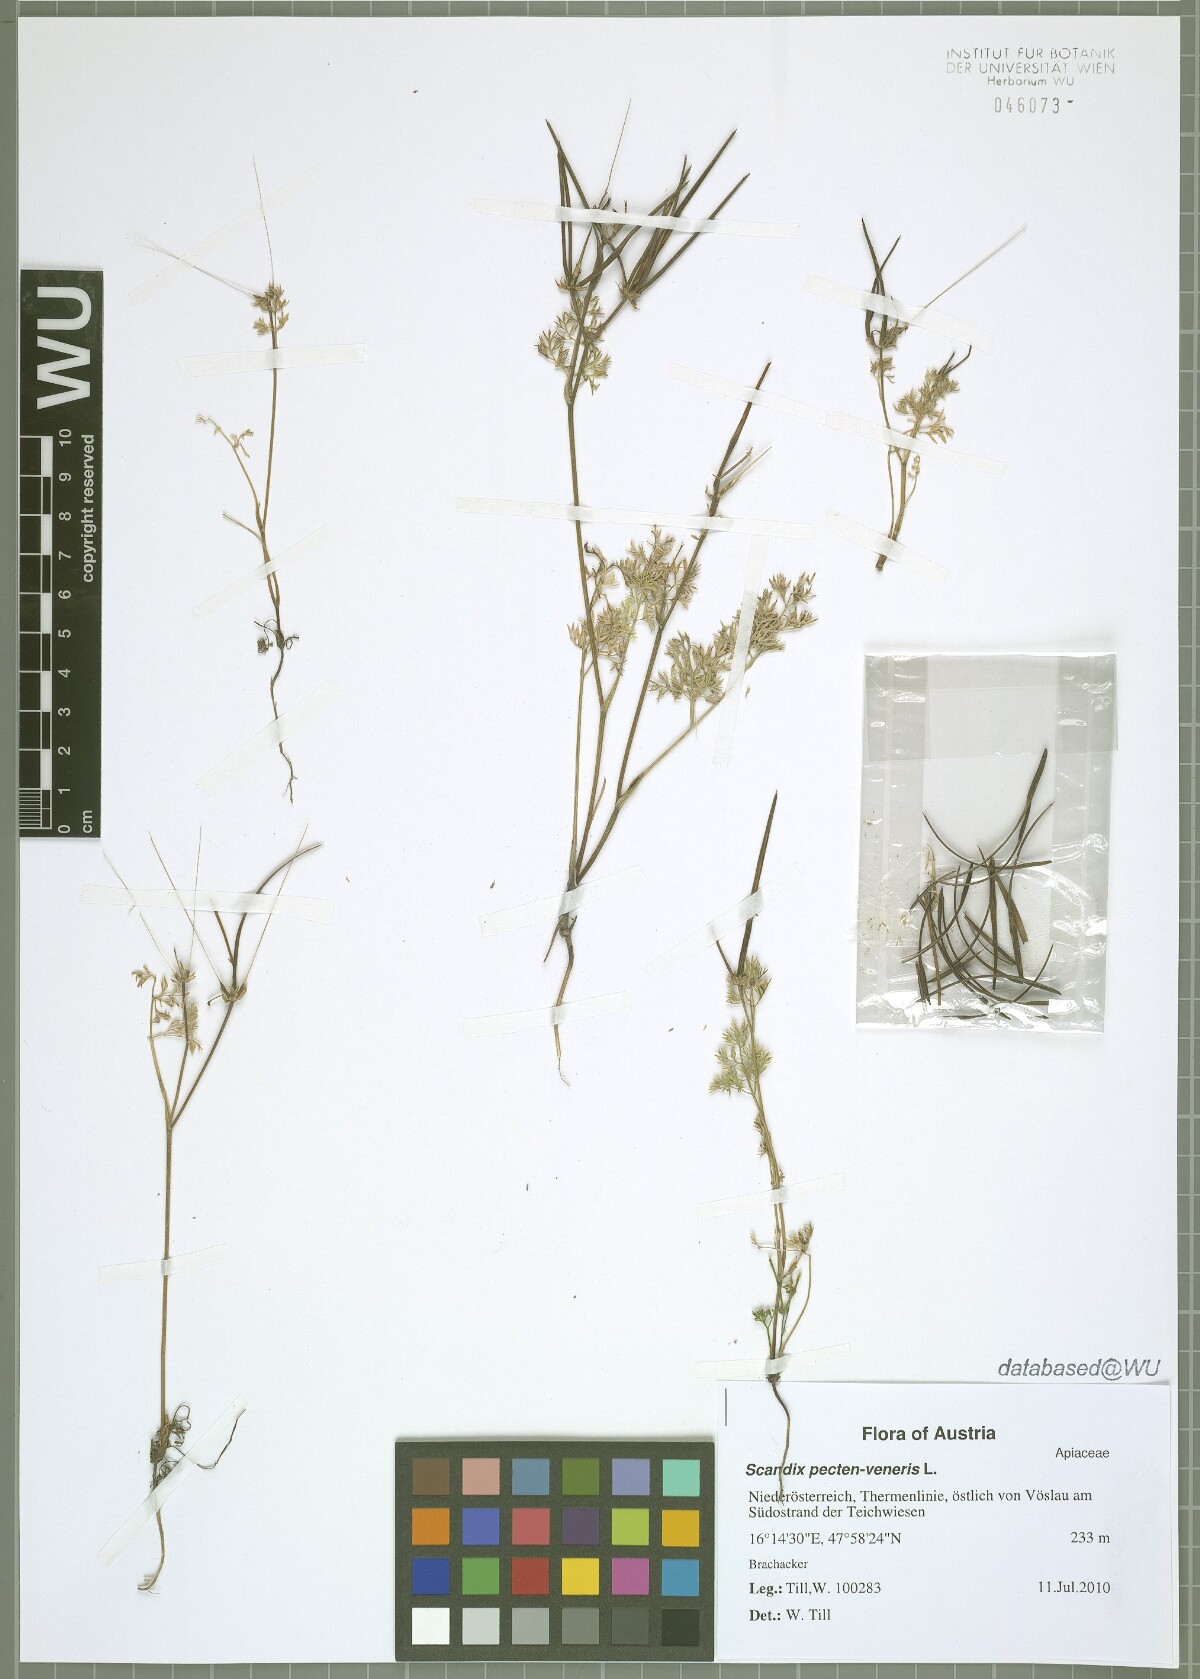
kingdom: Plantae
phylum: Tracheophyta
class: Magnoliopsida
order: Apiales
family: Apiaceae
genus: Scandix
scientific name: Scandix pecten-veneris
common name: Shepherd's-needle
